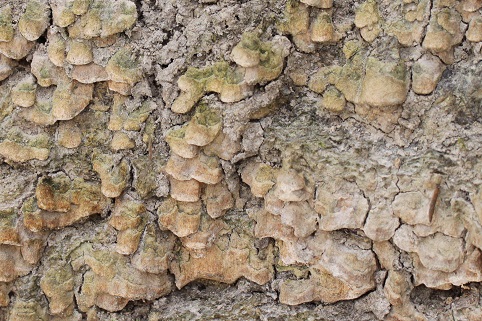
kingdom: Fungi
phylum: Basidiomycota
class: Agaricomycetes
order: Polyporales
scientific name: Polyporales
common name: poresvampordenen
